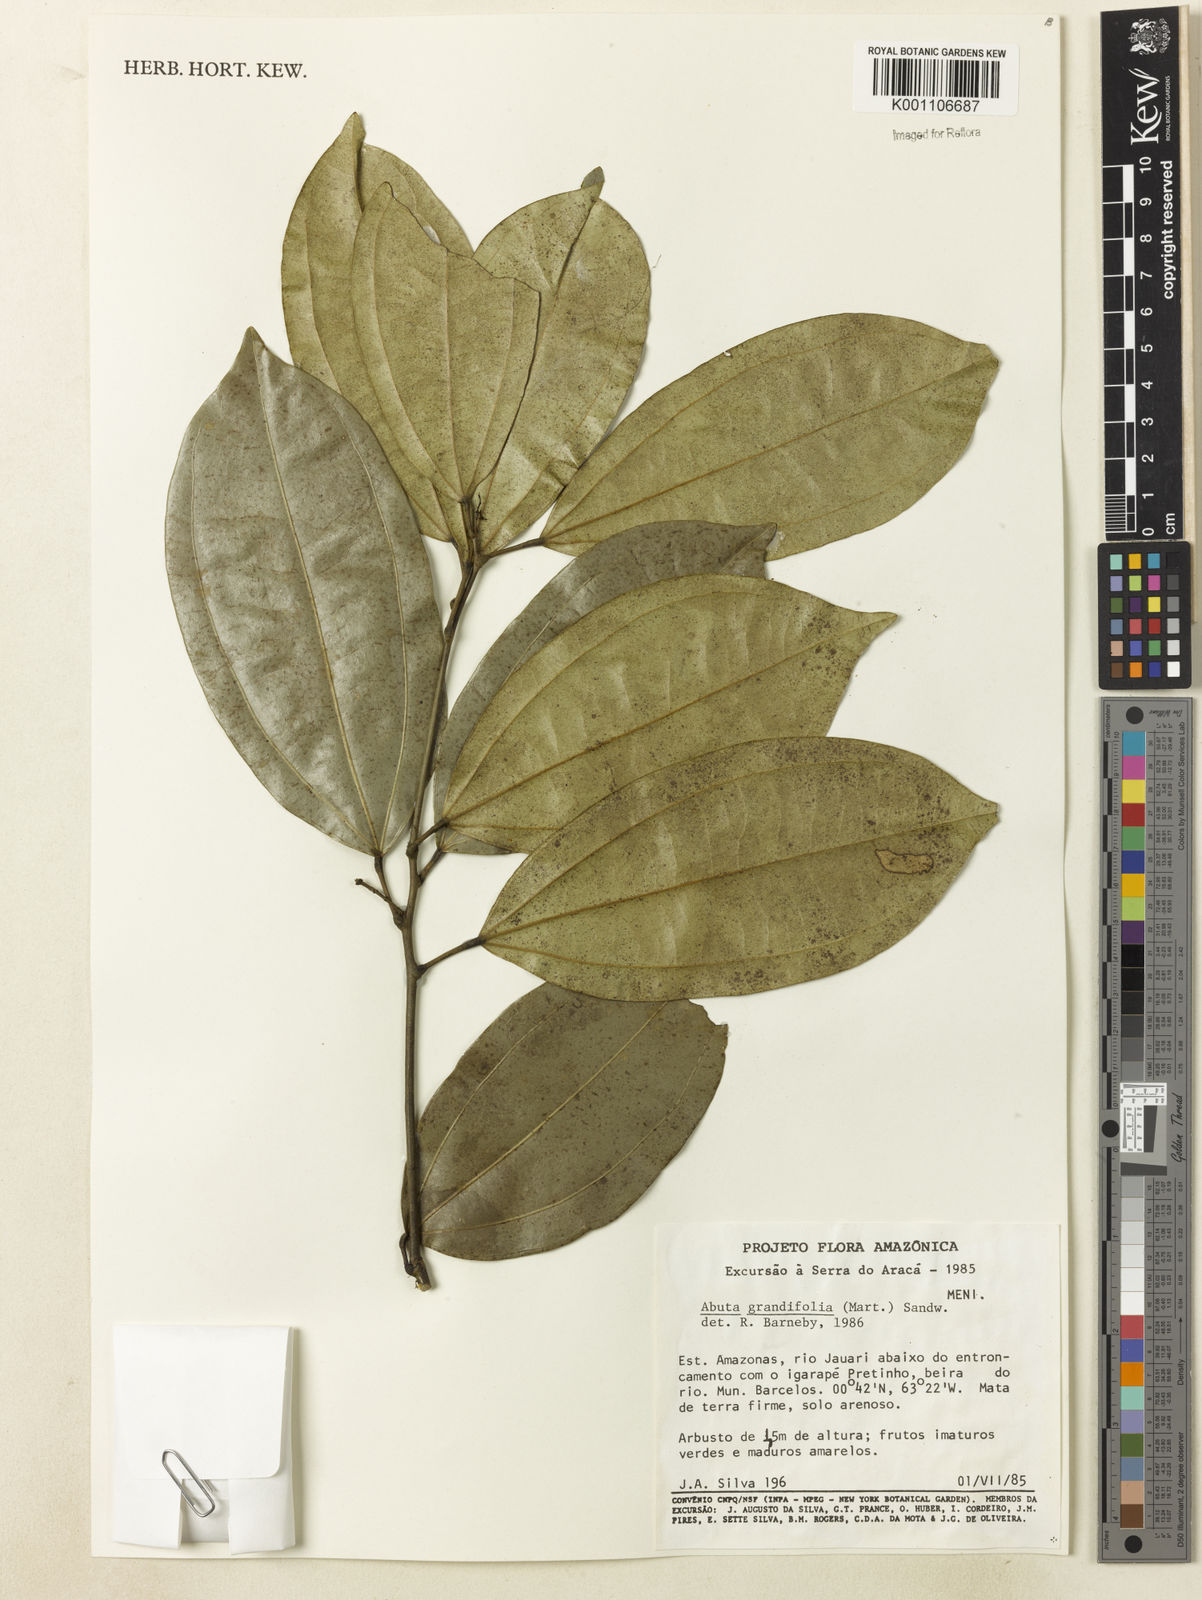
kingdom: Plantae
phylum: Tracheophyta
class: Magnoliopsida
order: Ranunculales
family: Menispermaceae
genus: Abuta
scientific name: Abuta grandifolia
